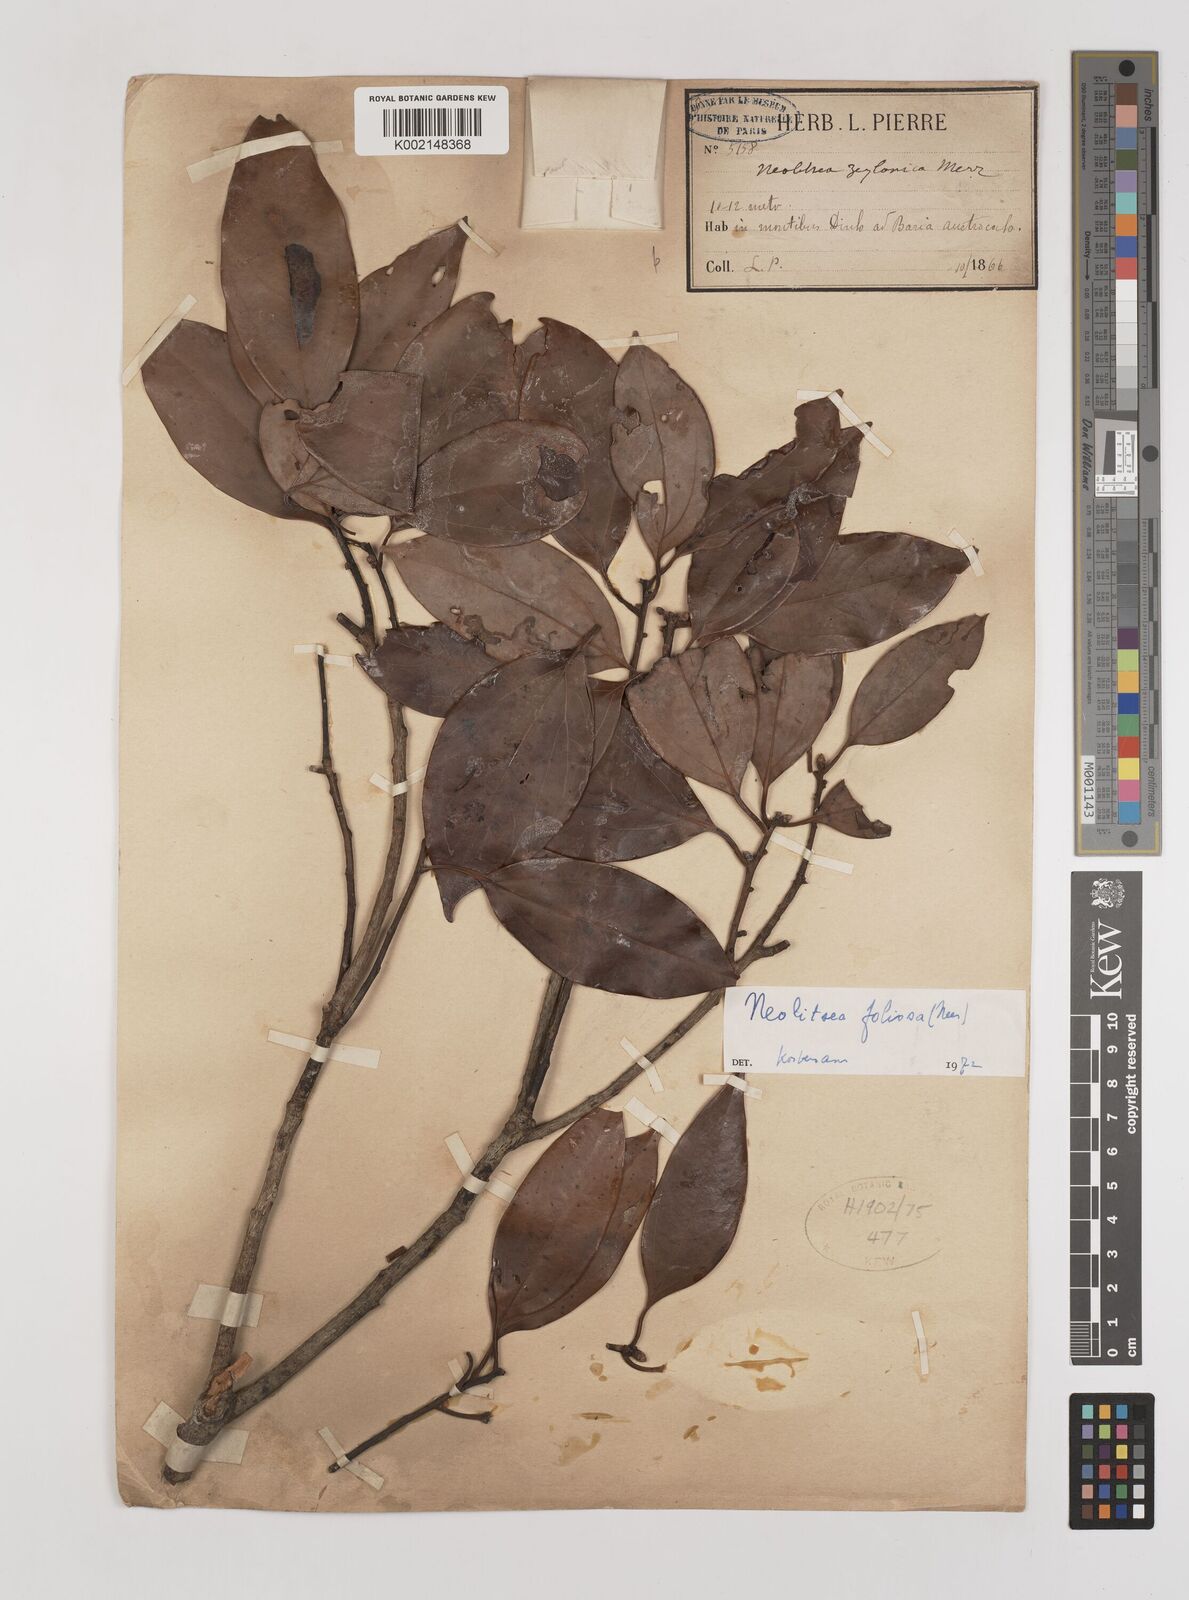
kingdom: Plantae
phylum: Tracheophyta
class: Magnoliopsida
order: Laurales
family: Lauraceae
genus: Neolitsea
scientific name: Neolitsea foliosa
